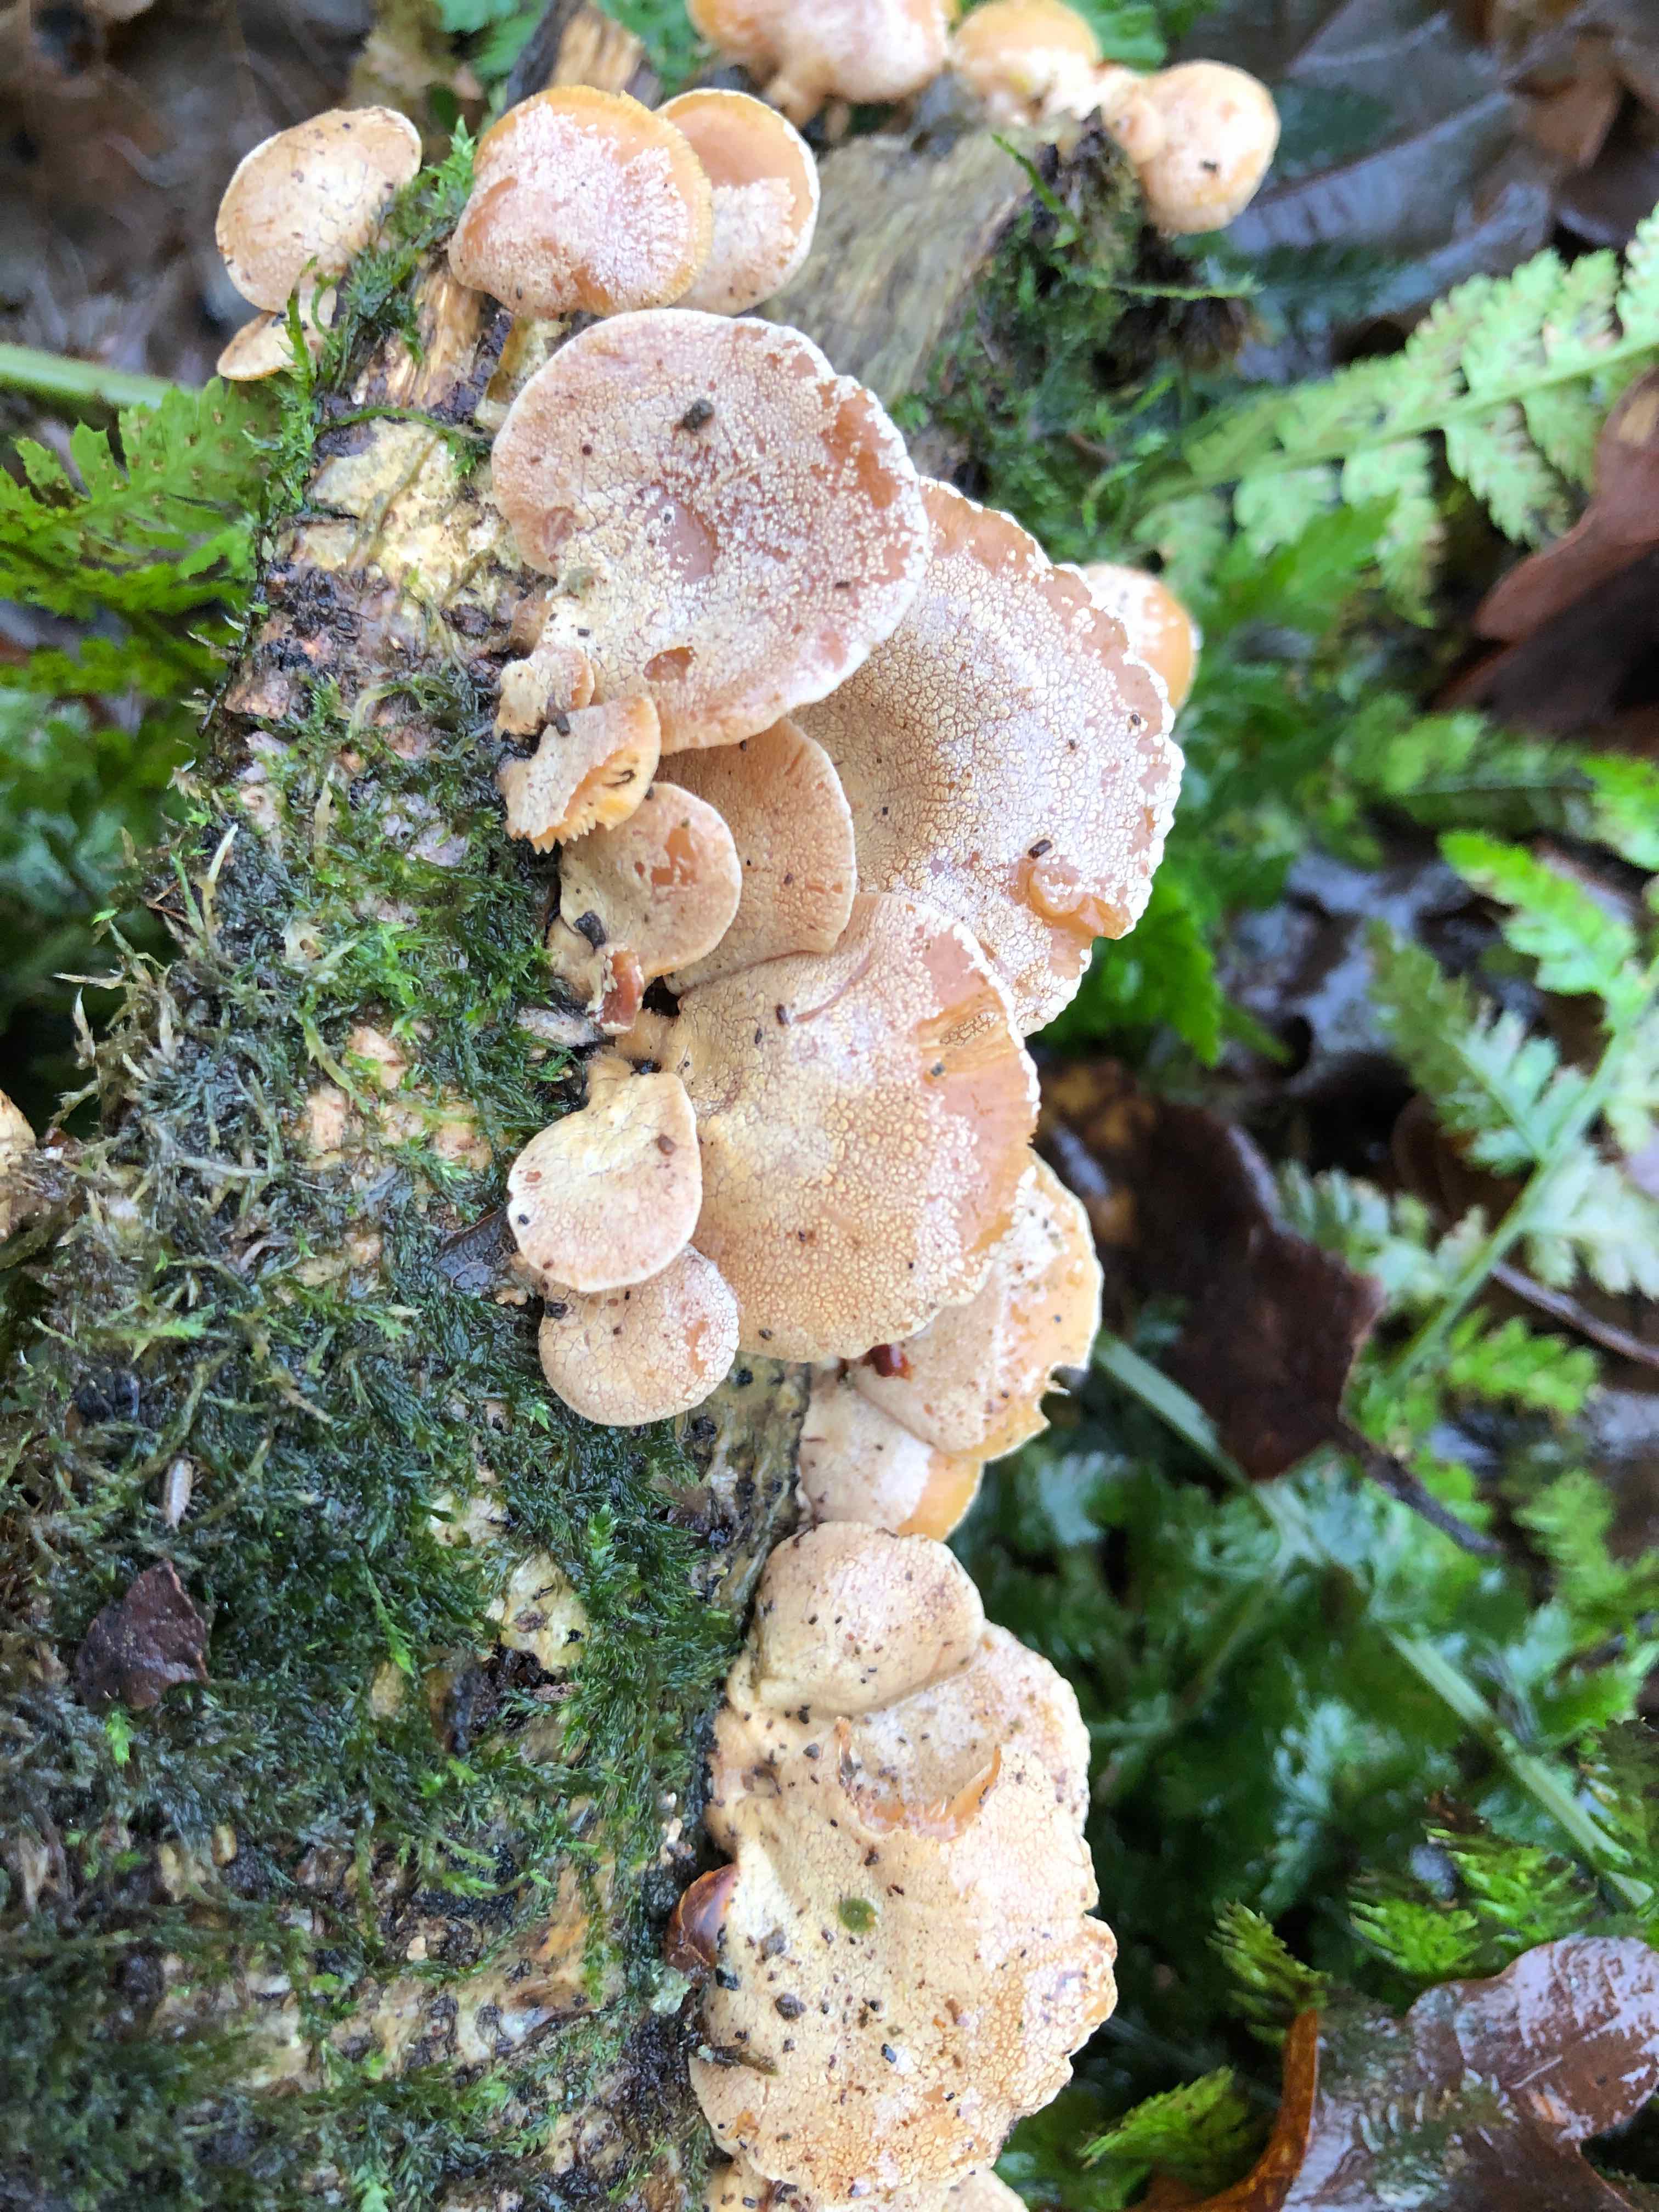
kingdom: Fungi
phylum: Basidiomycota
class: Agaricomycetes
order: Agaricales
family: Mycenaceae
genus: Panellus
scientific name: Panellus stipticus
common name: kliddet epaulethat
